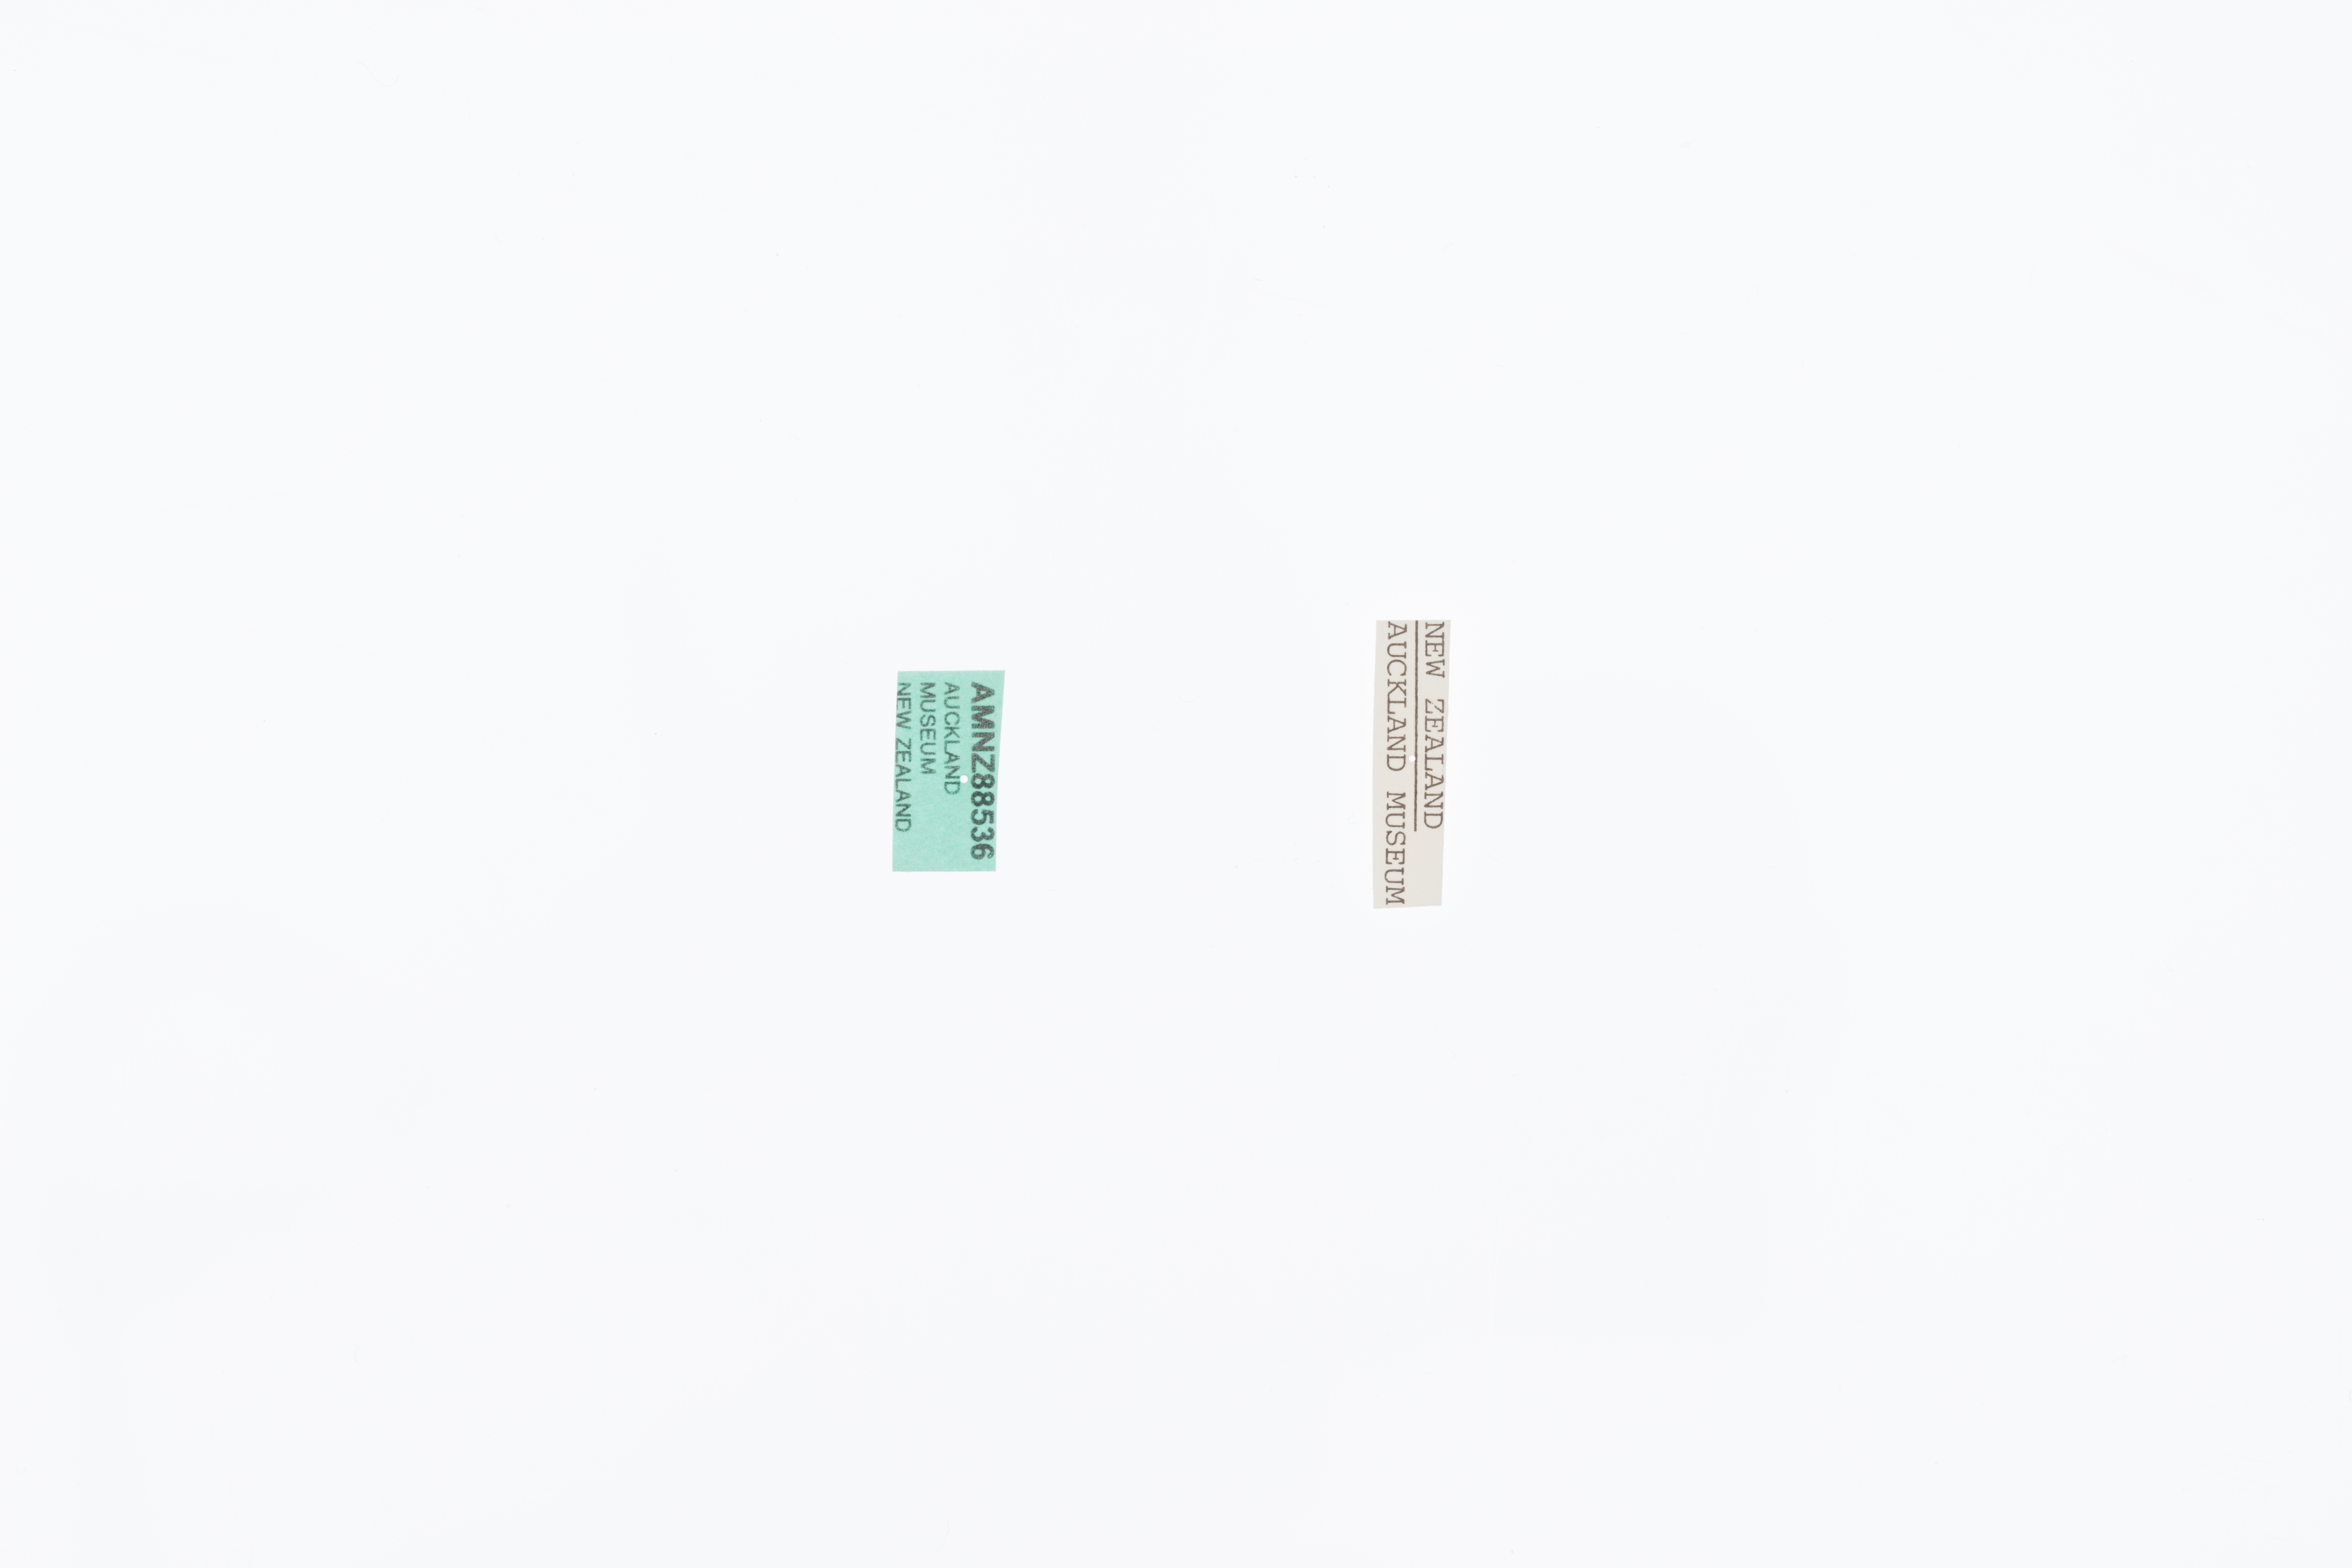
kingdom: Animalia
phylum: Arthropoda
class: Insecta
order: Orthoptera
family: Anostostomatidae
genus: Deinacrida
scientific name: Deinacrida heteracantha
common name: Wetapunga
